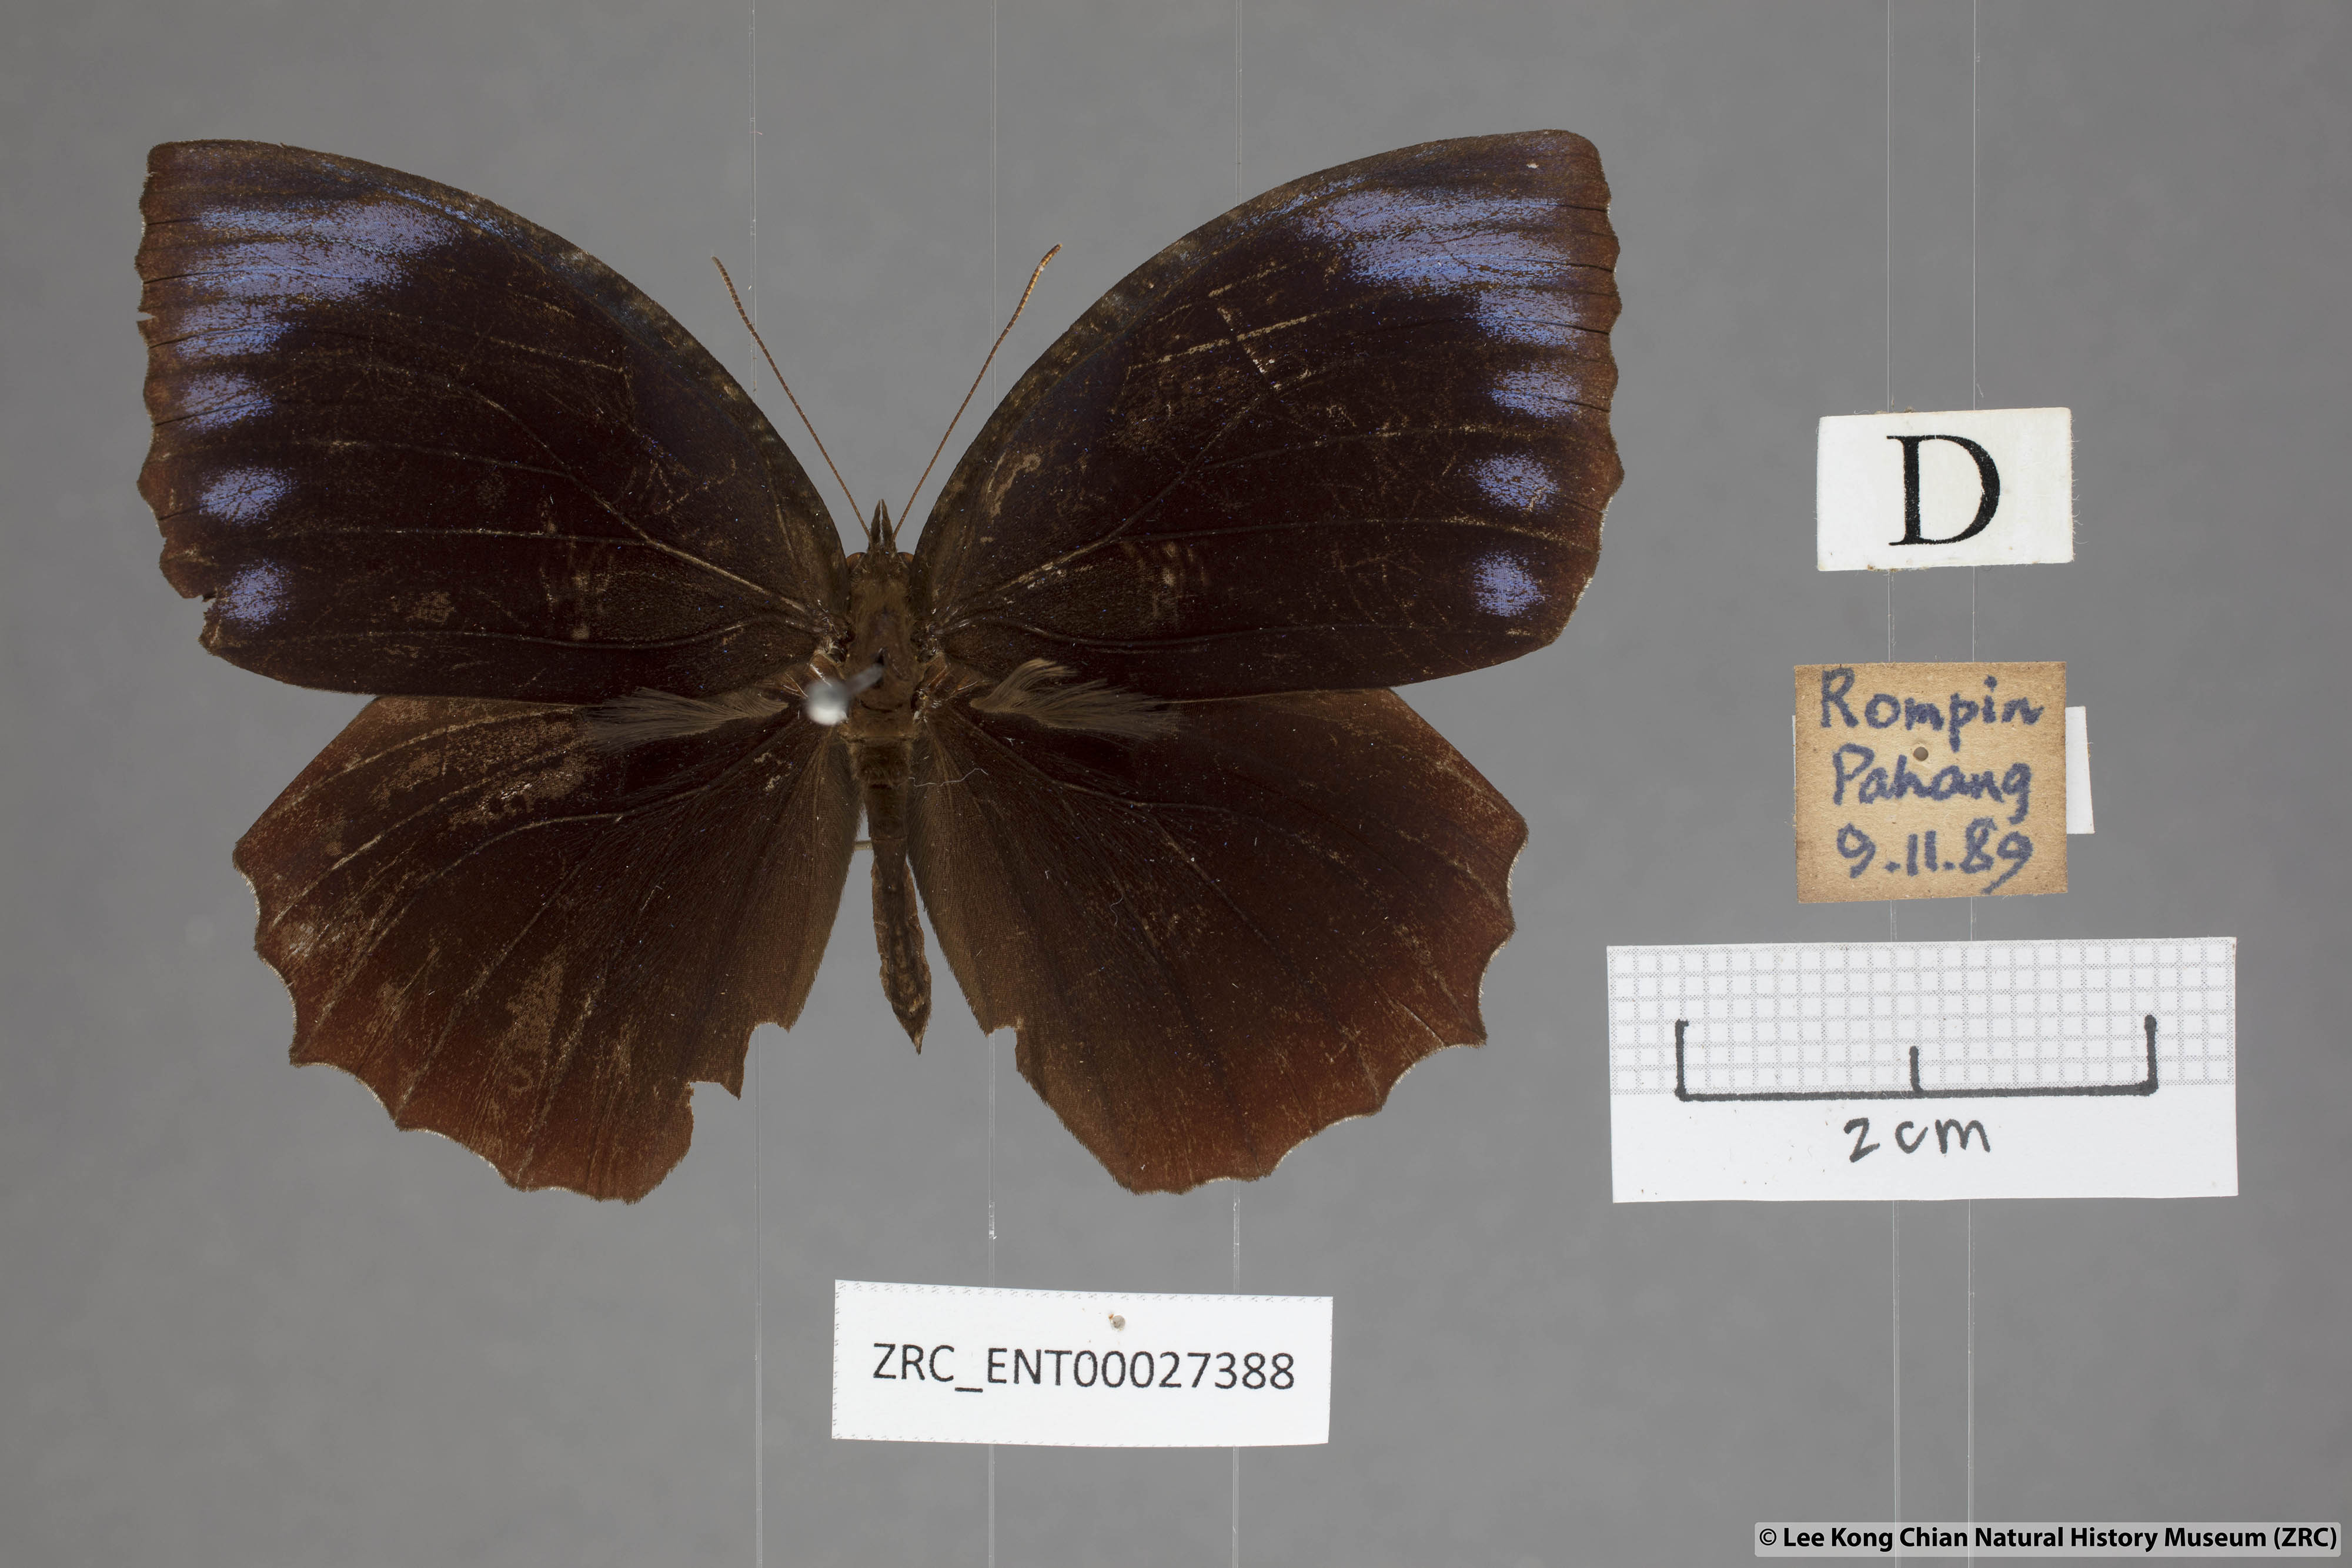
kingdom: Animalia
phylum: Arthropoda
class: Insecta
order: Lepidoptera
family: Nymphalidae
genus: Elymnias
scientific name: Elymnias hypermnestra
